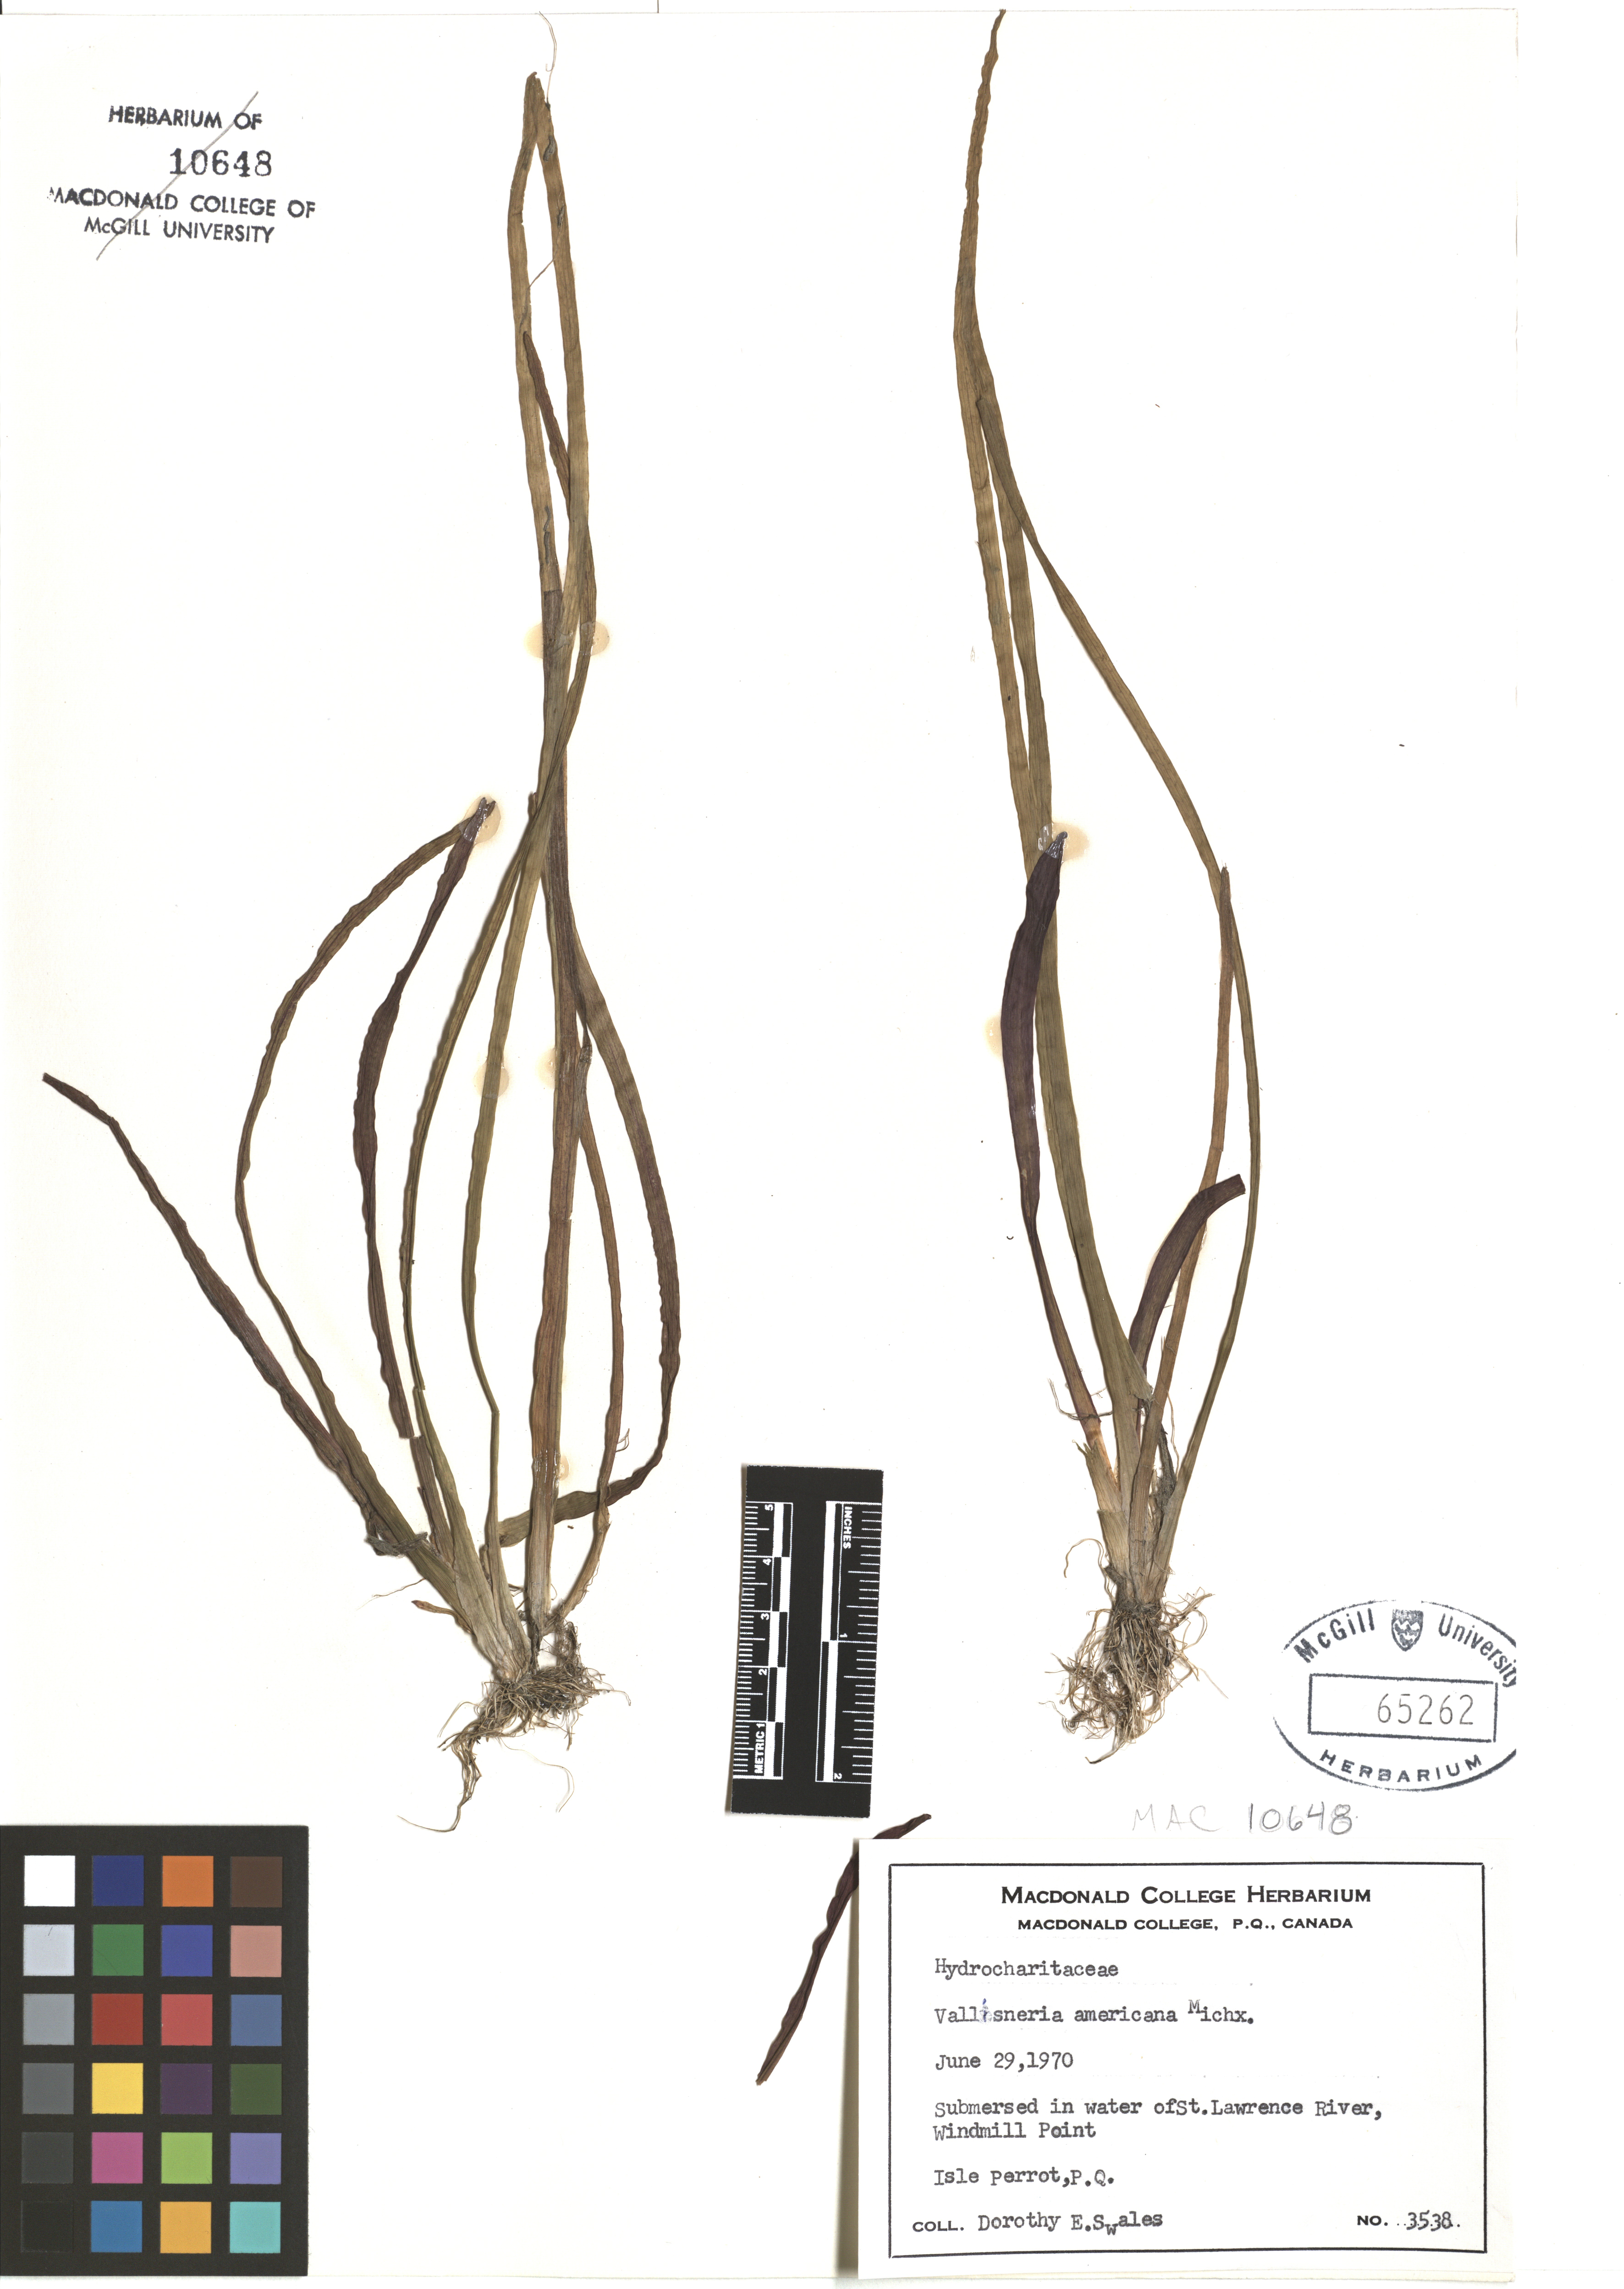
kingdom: Plantae
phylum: Tracheophyta
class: Liliopsida
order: Alismatales
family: Hydrocharitaceae
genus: Vallisneria
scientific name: Vallisneria americana
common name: American eelgrass
